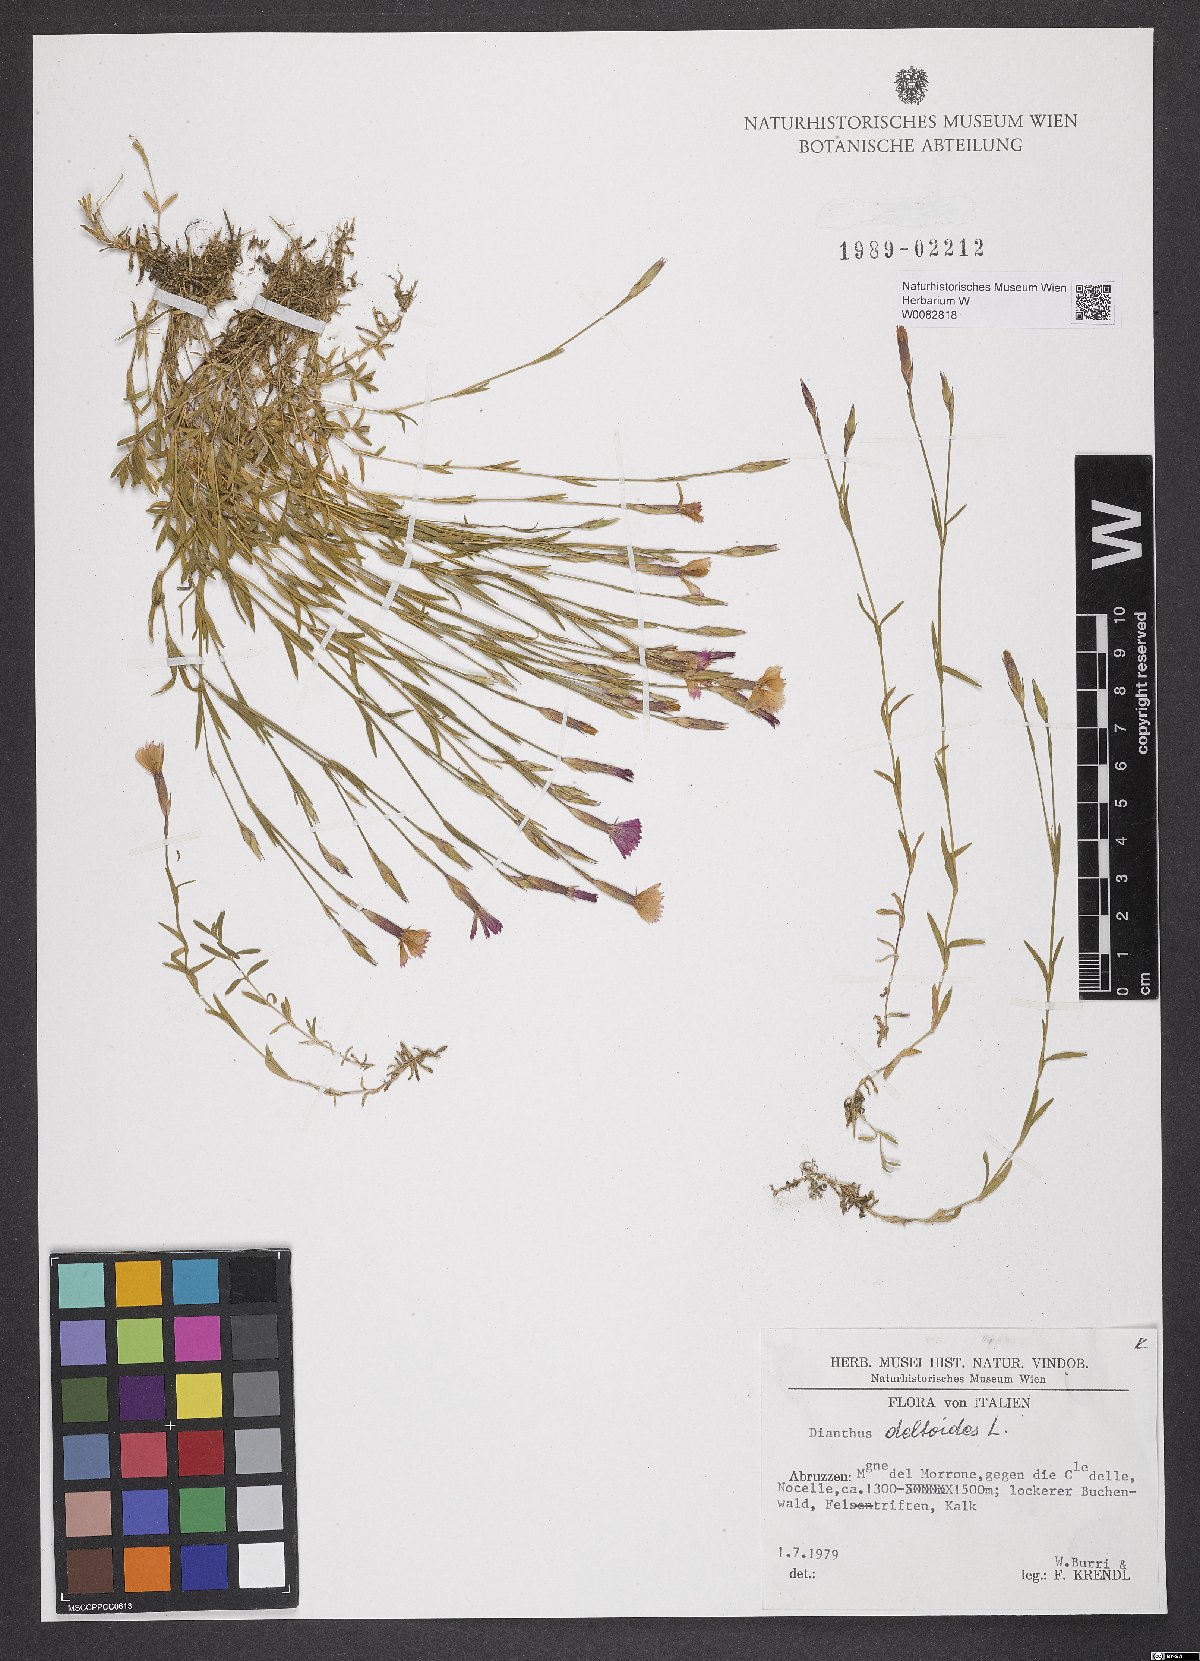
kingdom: Plantae
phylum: Tracheophyta
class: Magnoliopsida
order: Caryophyllales
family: Caryophyllaceae
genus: Dianthus
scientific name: Dianthus deltoides
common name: Maiden pink
